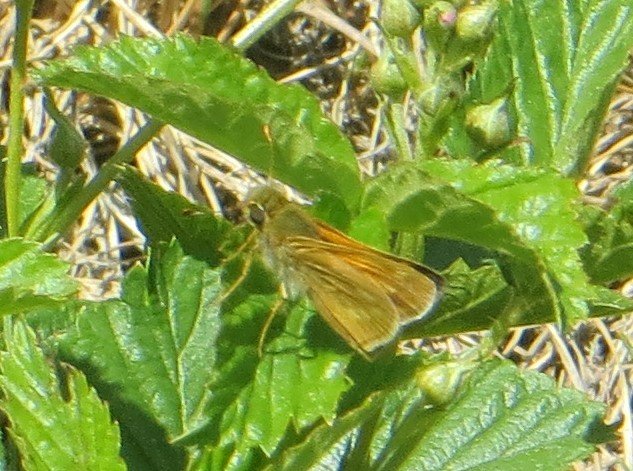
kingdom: Animalia
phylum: Arthropoda
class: Insecta
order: Lepidoptera
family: Hesperiidae
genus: Hesperia
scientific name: Hesperia sassacus
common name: Sassacus Skipper
